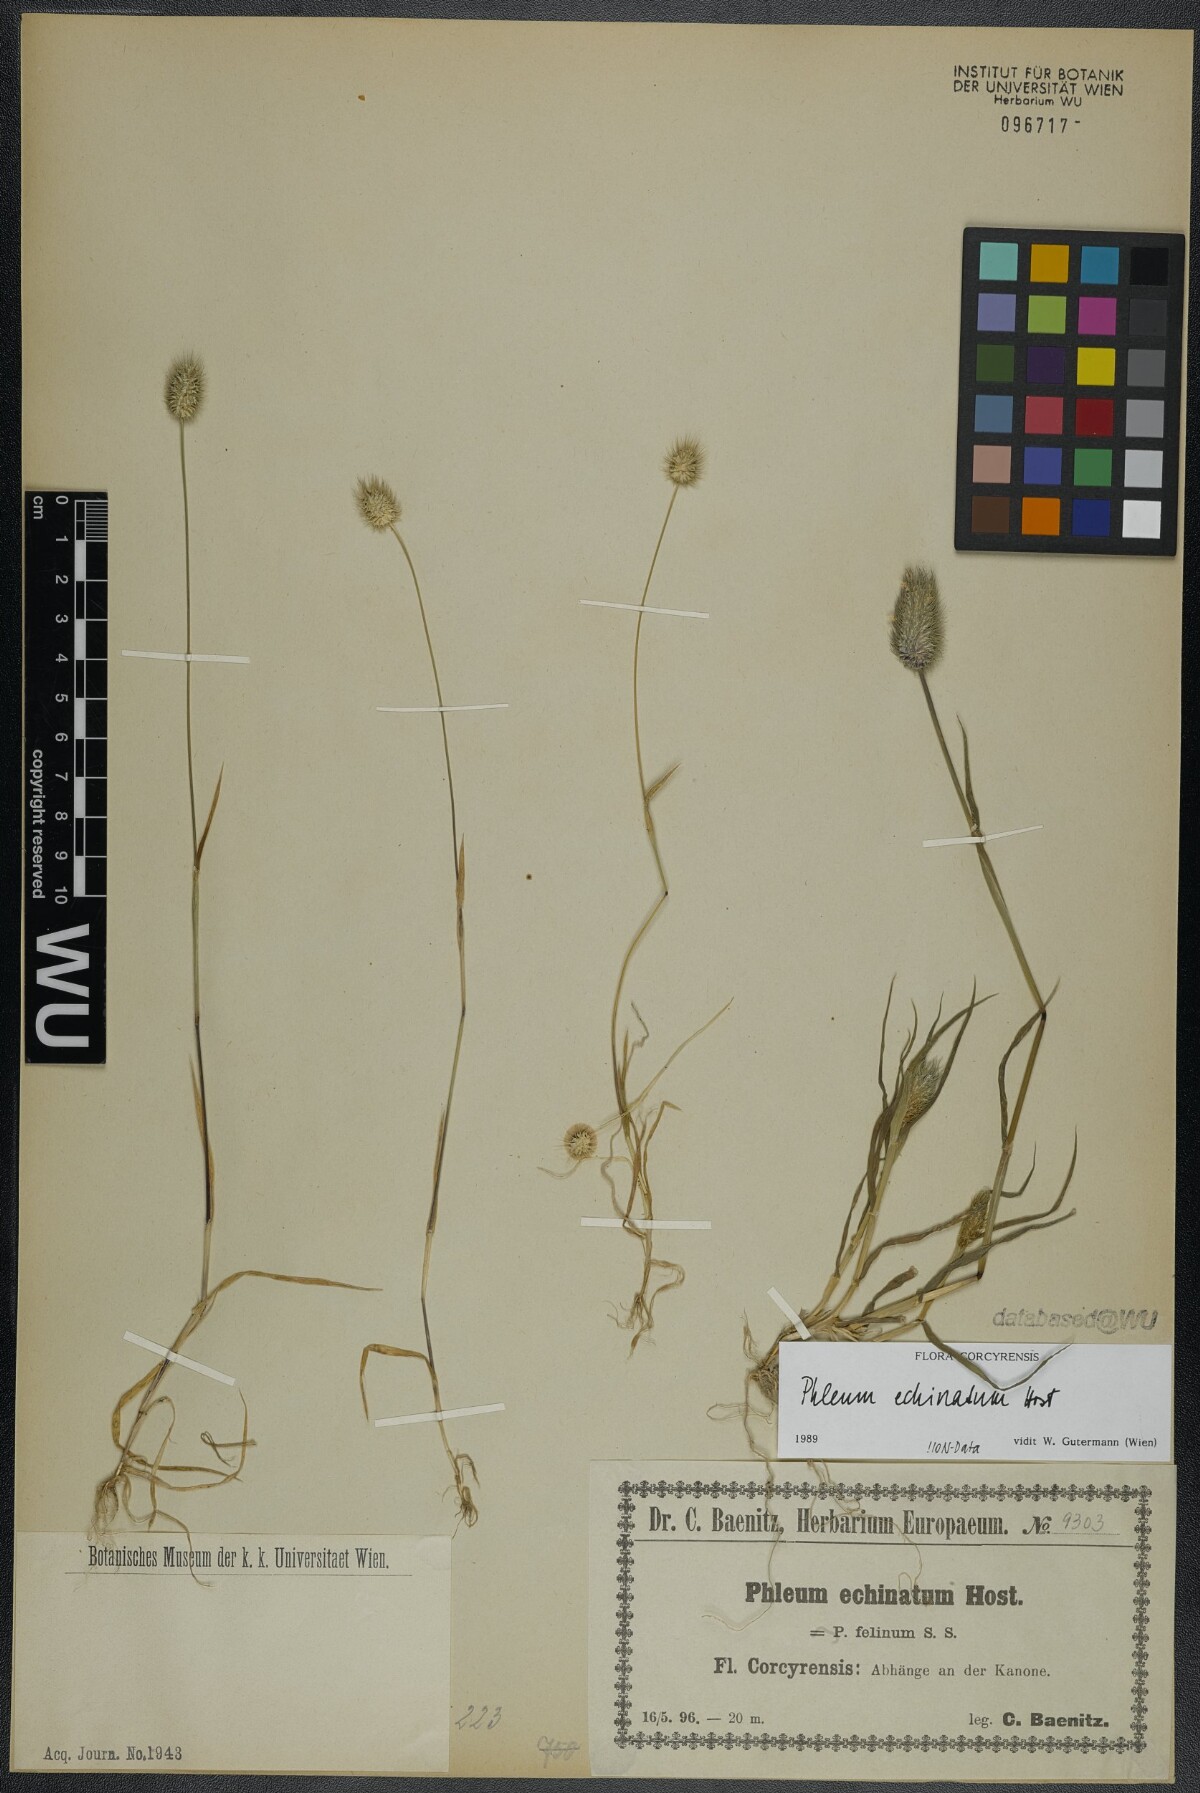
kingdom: Plantae
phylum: Tracheophyta
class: Liliopsida
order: Poales
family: Poaceae
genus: Phleum
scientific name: Phleum echinatum
